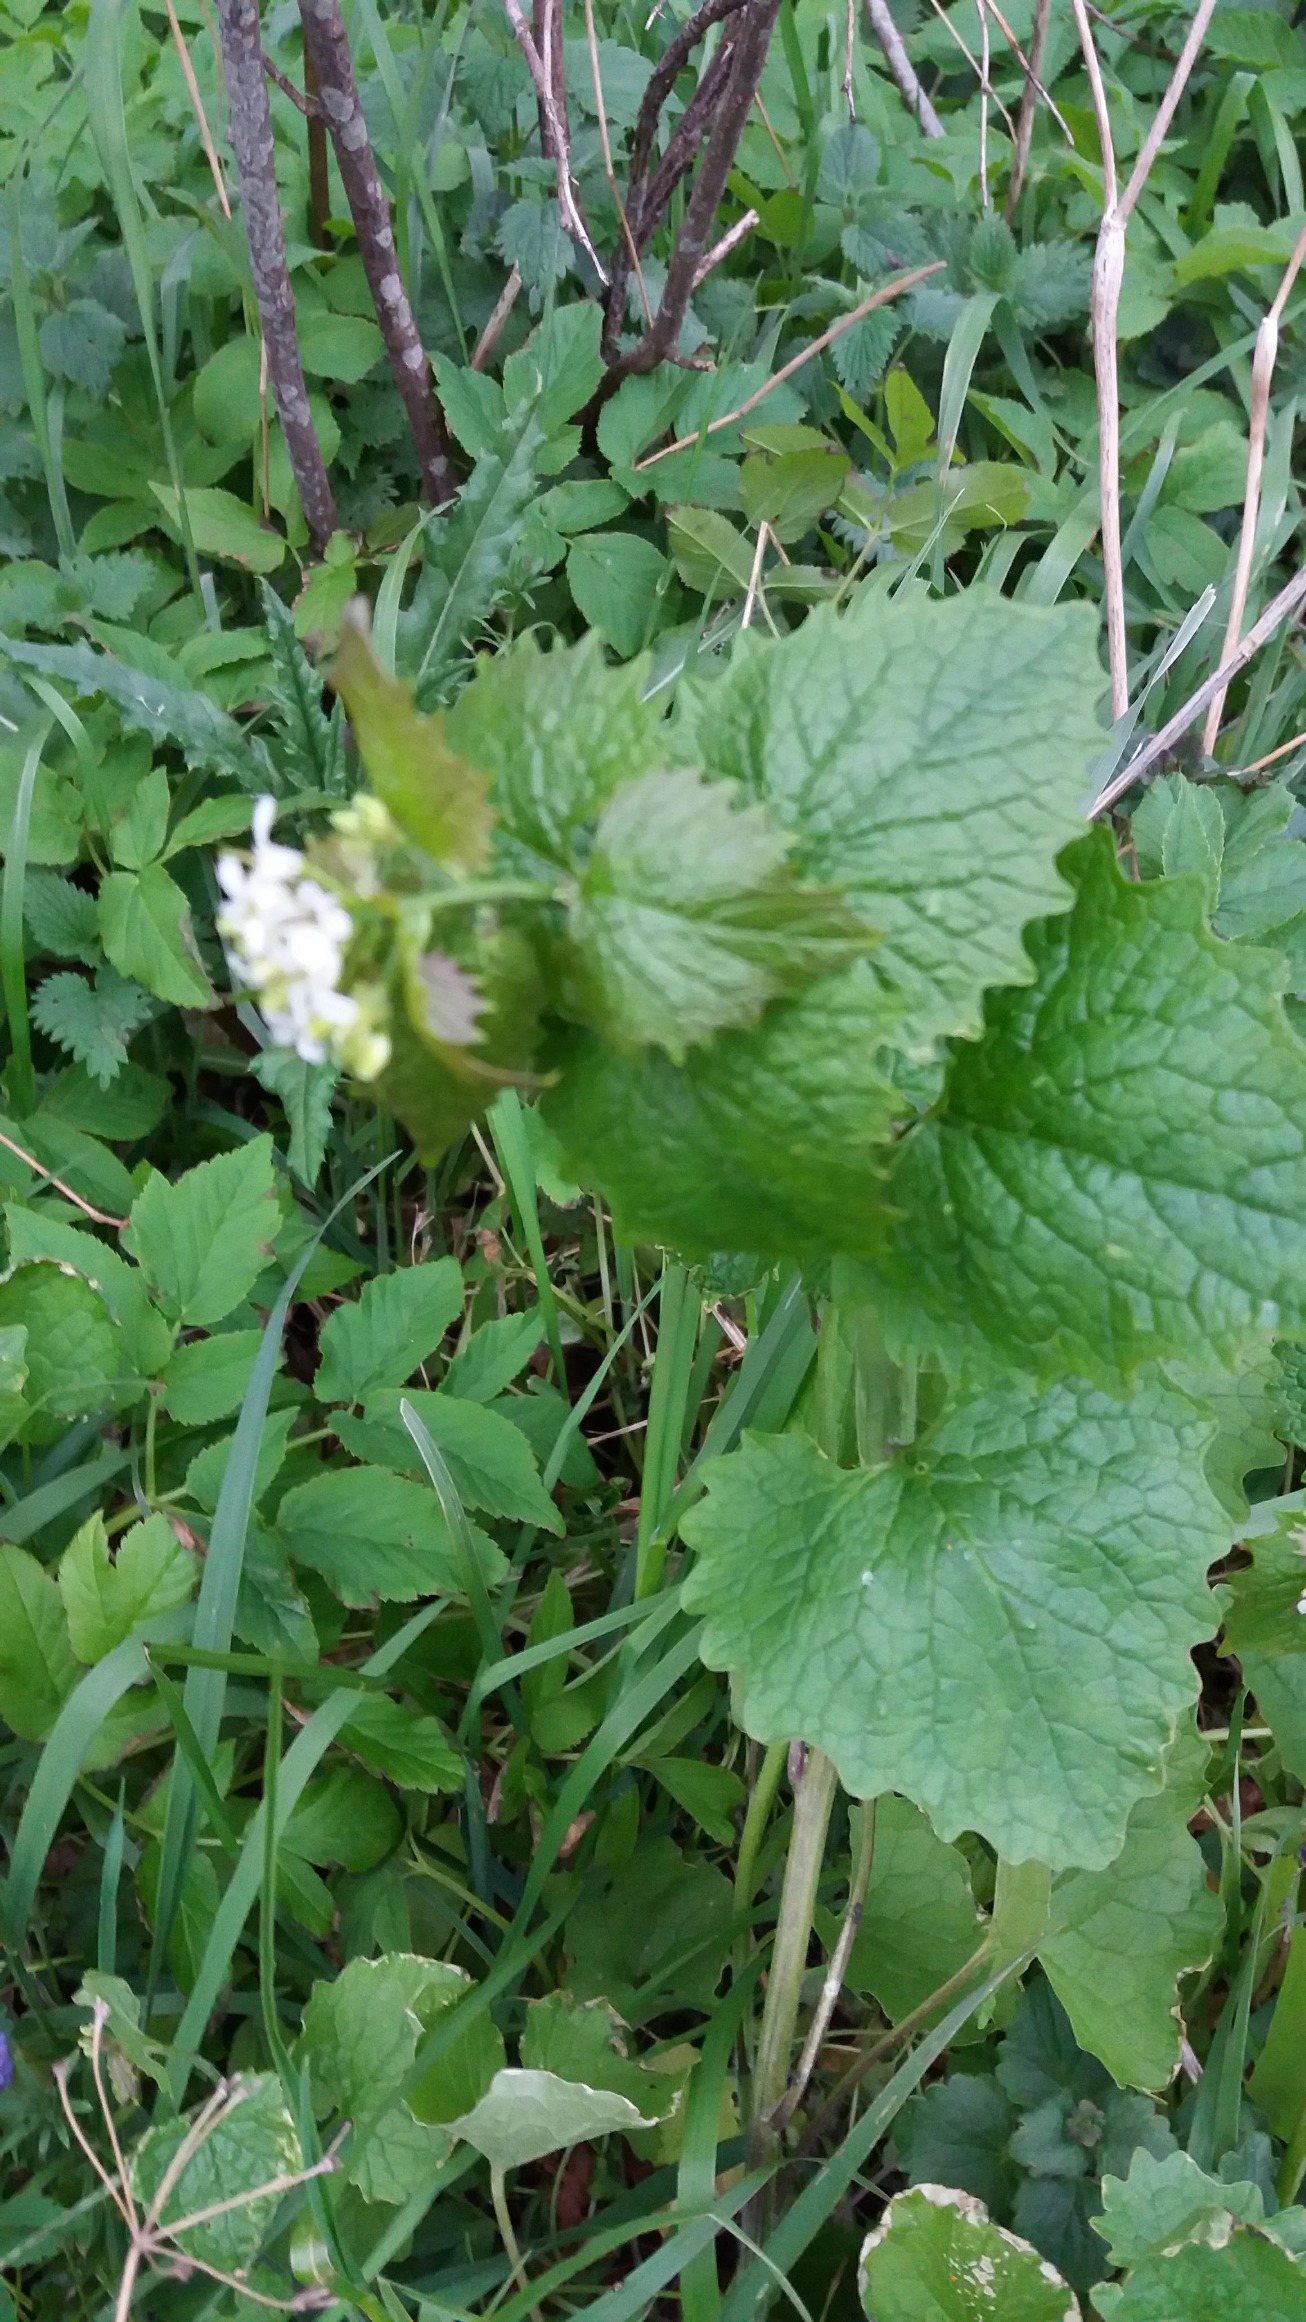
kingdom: Plantae
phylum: Tracheophyta
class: Magnoliopsida
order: Brassicales
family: Brassicaceae
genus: Alliaria
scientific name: Alliaria petiolata
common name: Løgkarse
